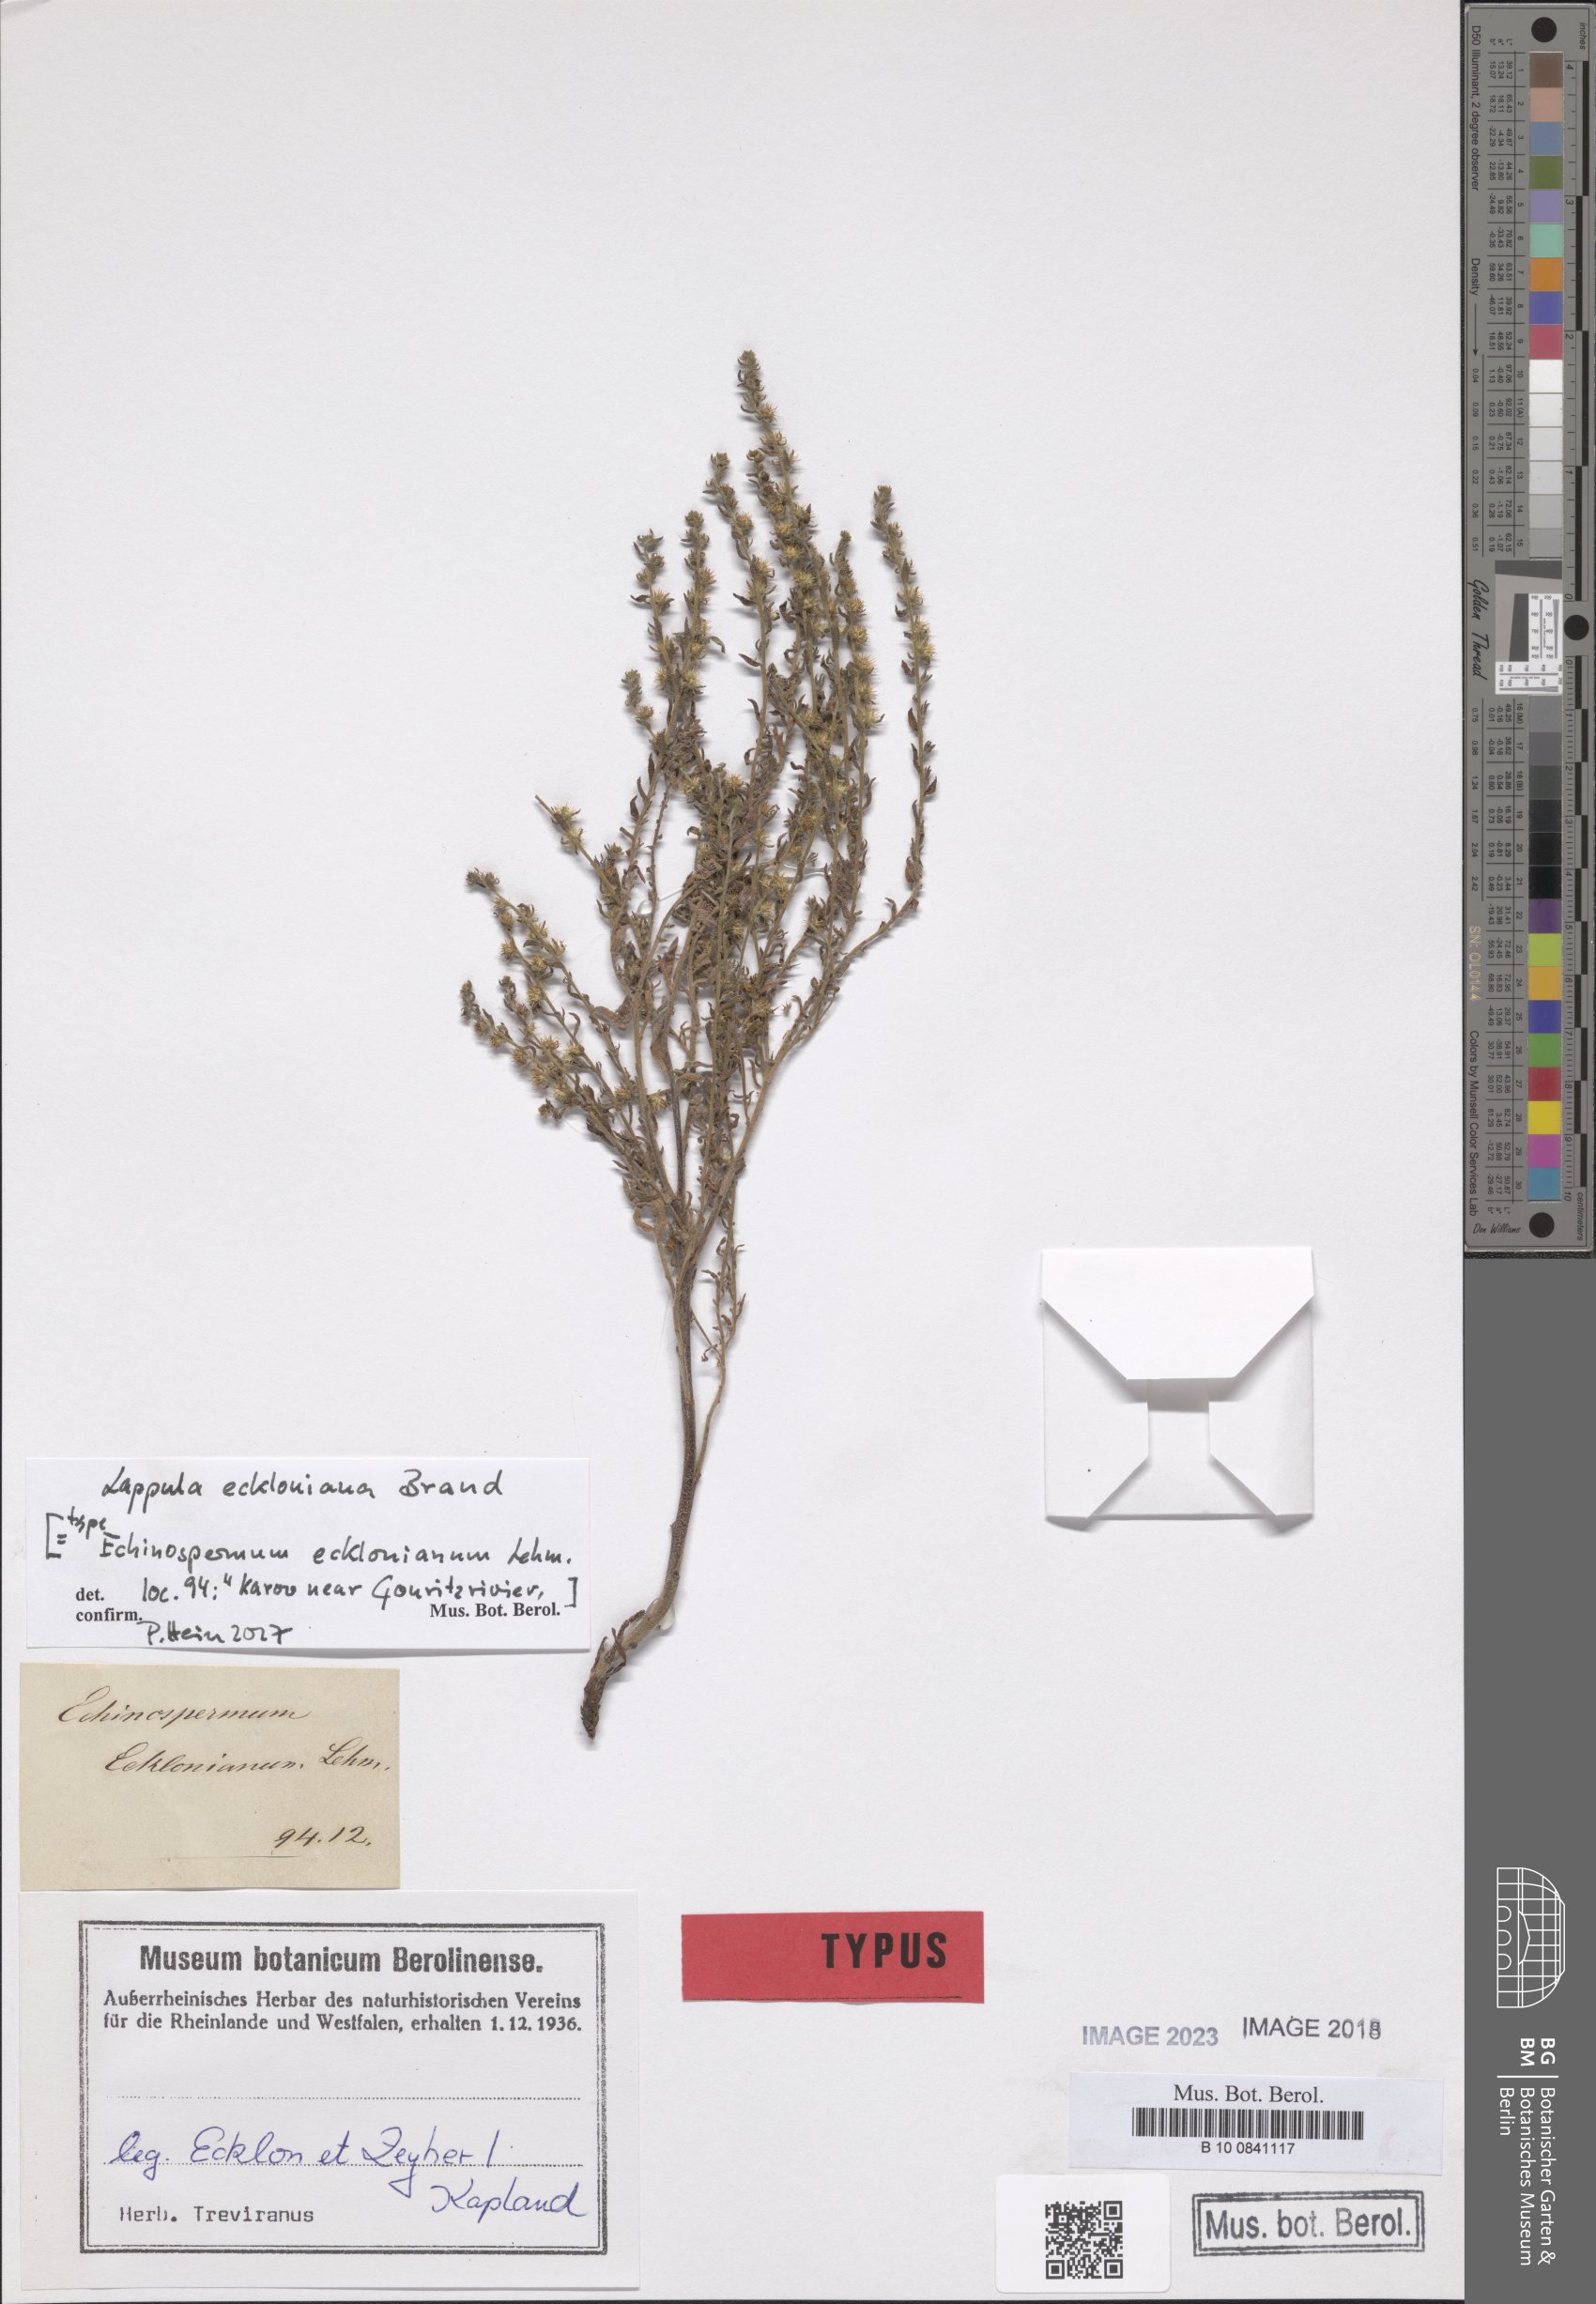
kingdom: Plantae
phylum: Tracheophyta
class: Magnoliopsida
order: Boraginales
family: Boraginaceae
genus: Lappula
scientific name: Lappula cynoglossoides
